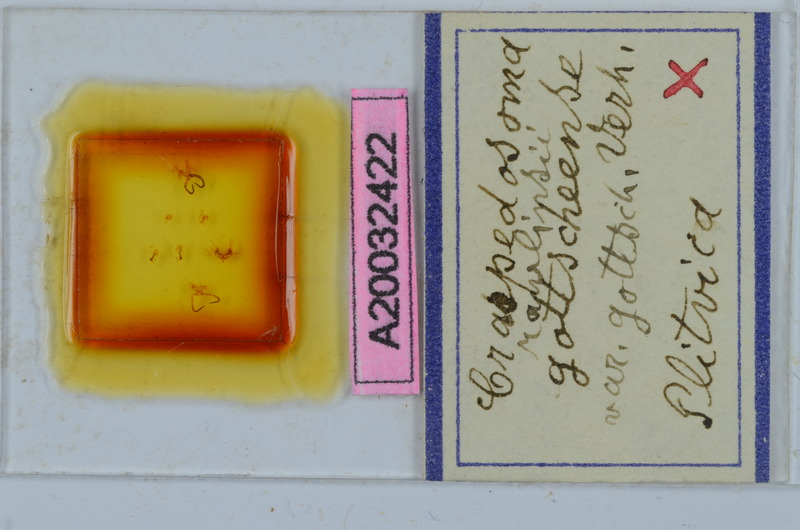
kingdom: Animalia
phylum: Arthropoda
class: Diplopoda
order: Chordeumatida
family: Craspedosomatidae
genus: Craspedosoma
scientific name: Craspedosoma slavum
